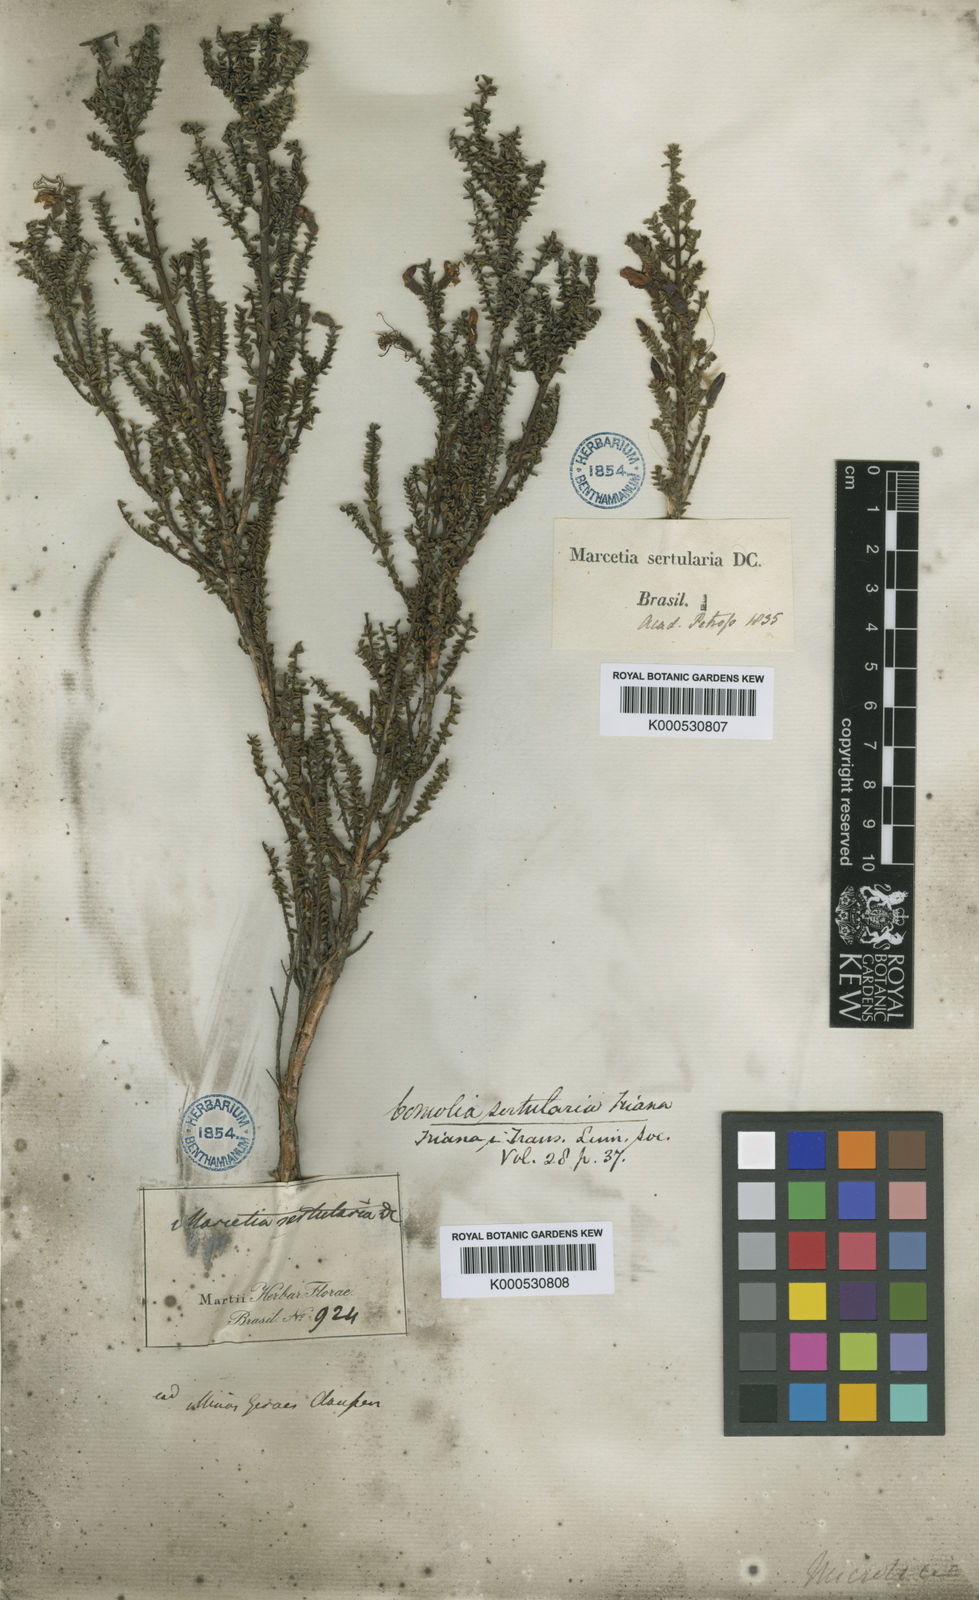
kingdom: Plantae
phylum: Tracheophyta
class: Magnoliopsida
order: Myrtales
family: Melastomataceae
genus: Fritzschia
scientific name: Fritzschia sertularia
